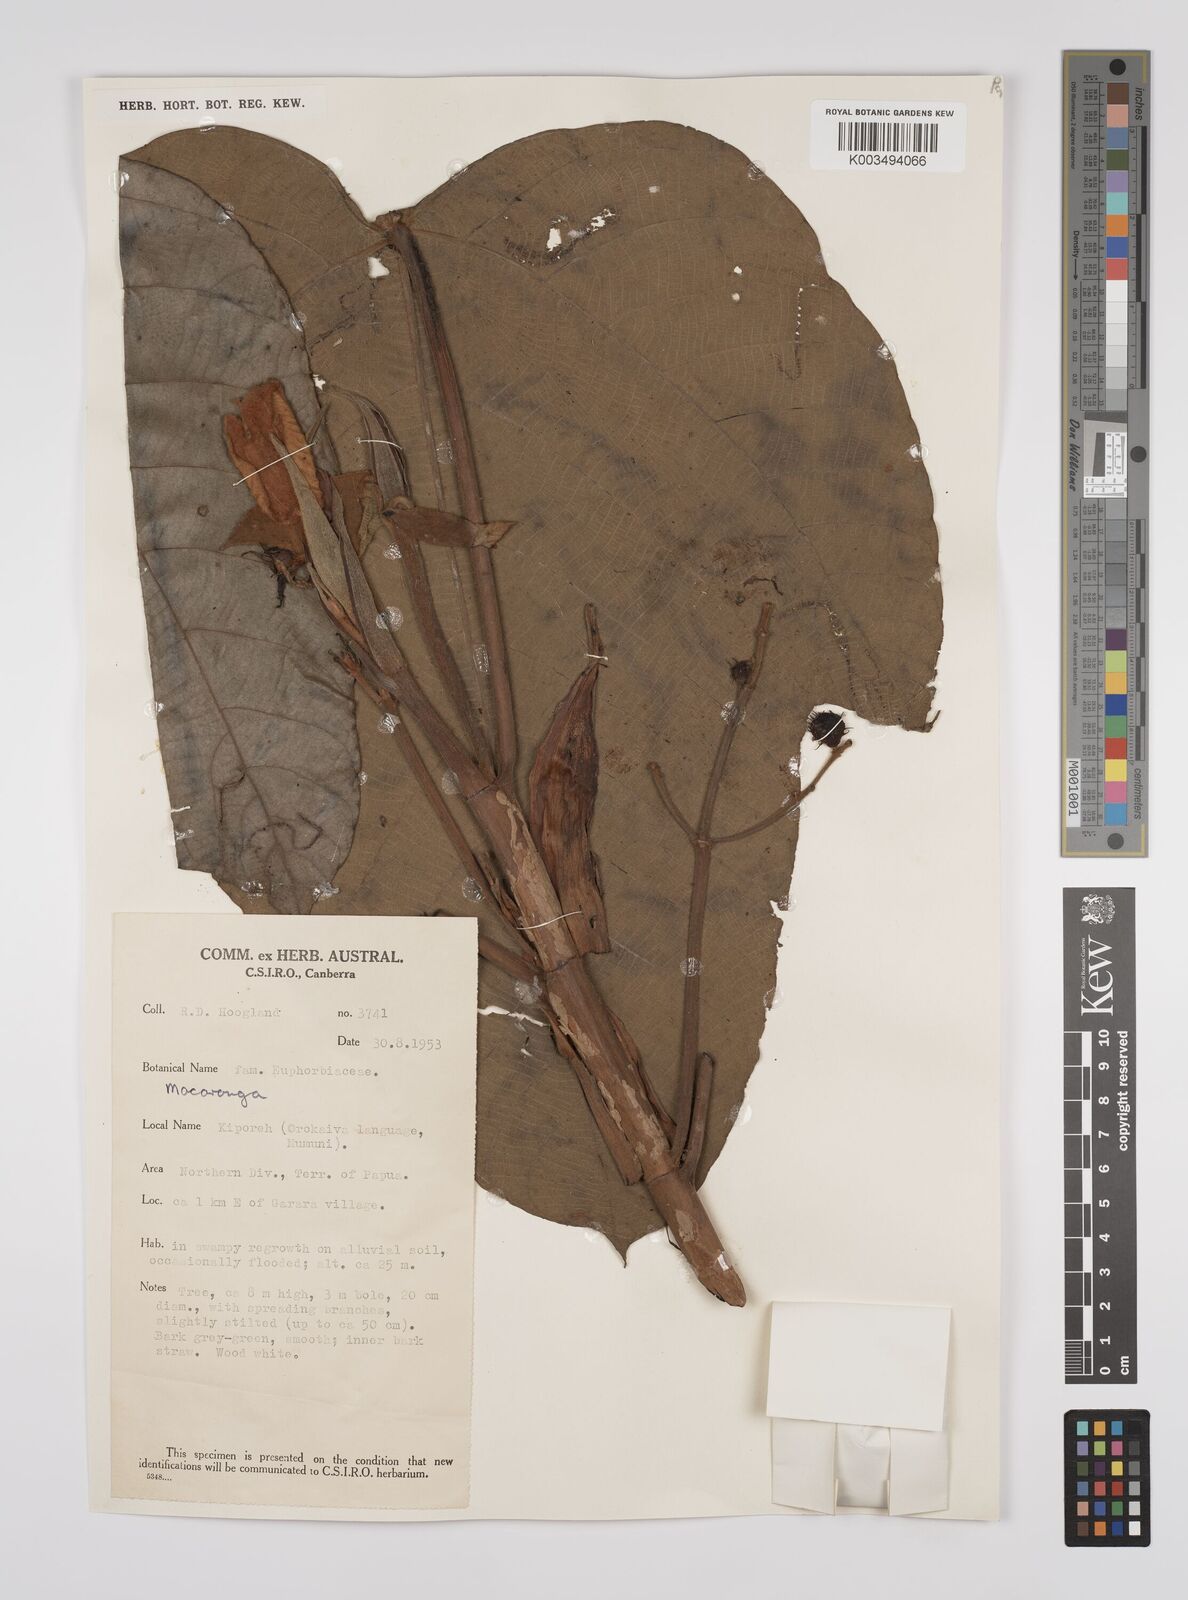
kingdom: Plantae
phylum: Tracheophyta
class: Magnoliopsida
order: Malpighiales
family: Euphorbiaceae
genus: Macaranga
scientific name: Macaranga aleuritoides
